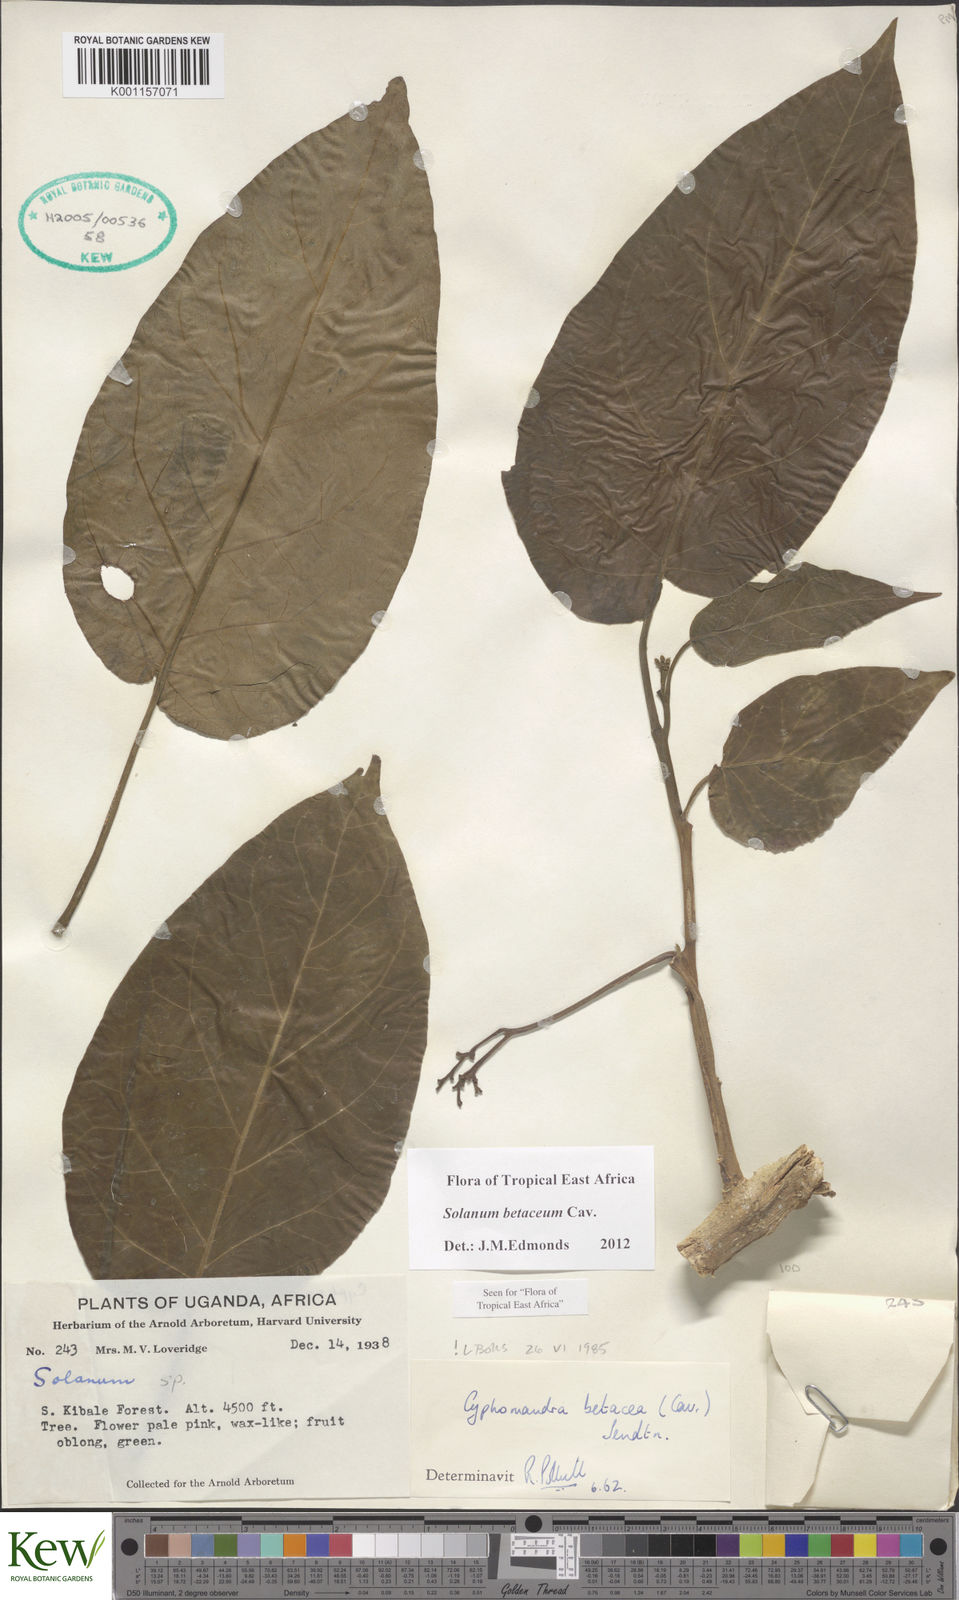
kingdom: Plantae
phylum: Tracheophyta
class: Magnoliopsida
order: Solanales
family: Solanaceae
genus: Solanum
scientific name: Solanum betaceum
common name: Tamarillo
